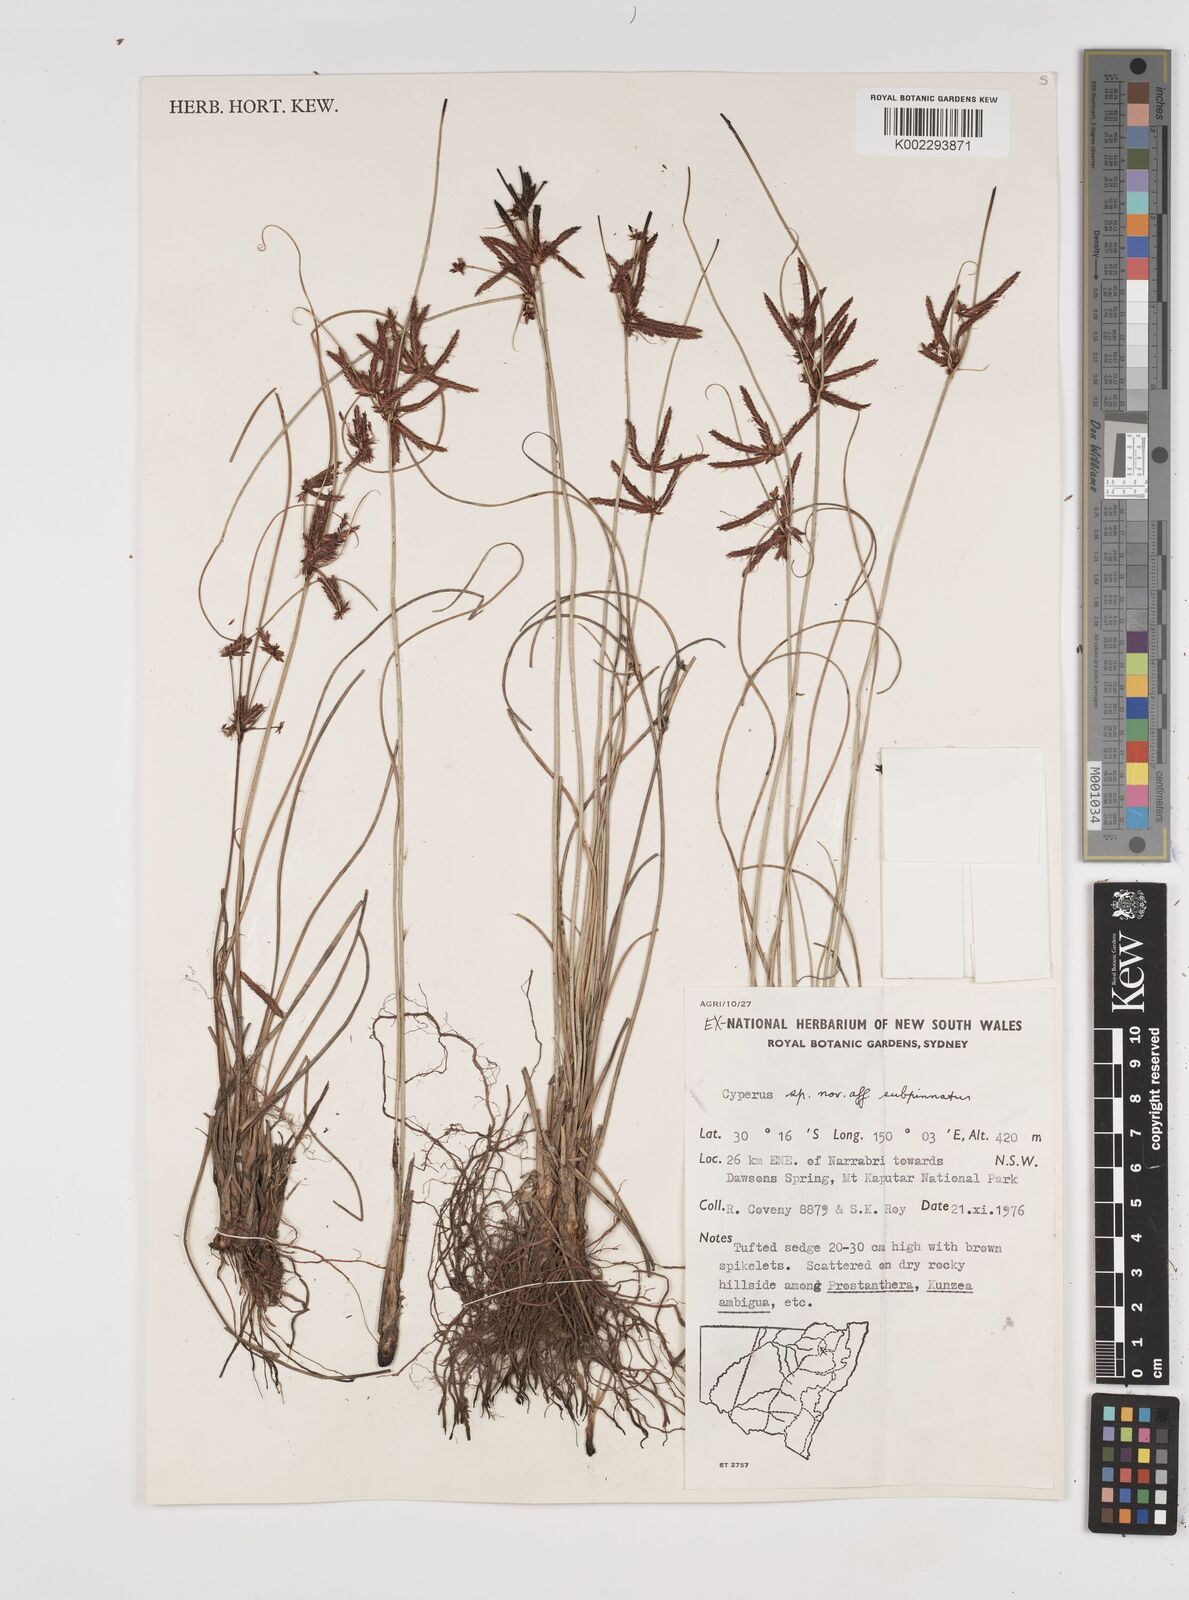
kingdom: Plantae
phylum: Tracheophyta
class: Liliopsida
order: Poales
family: Cyperaceae
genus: Cyperus
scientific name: Cyperus
